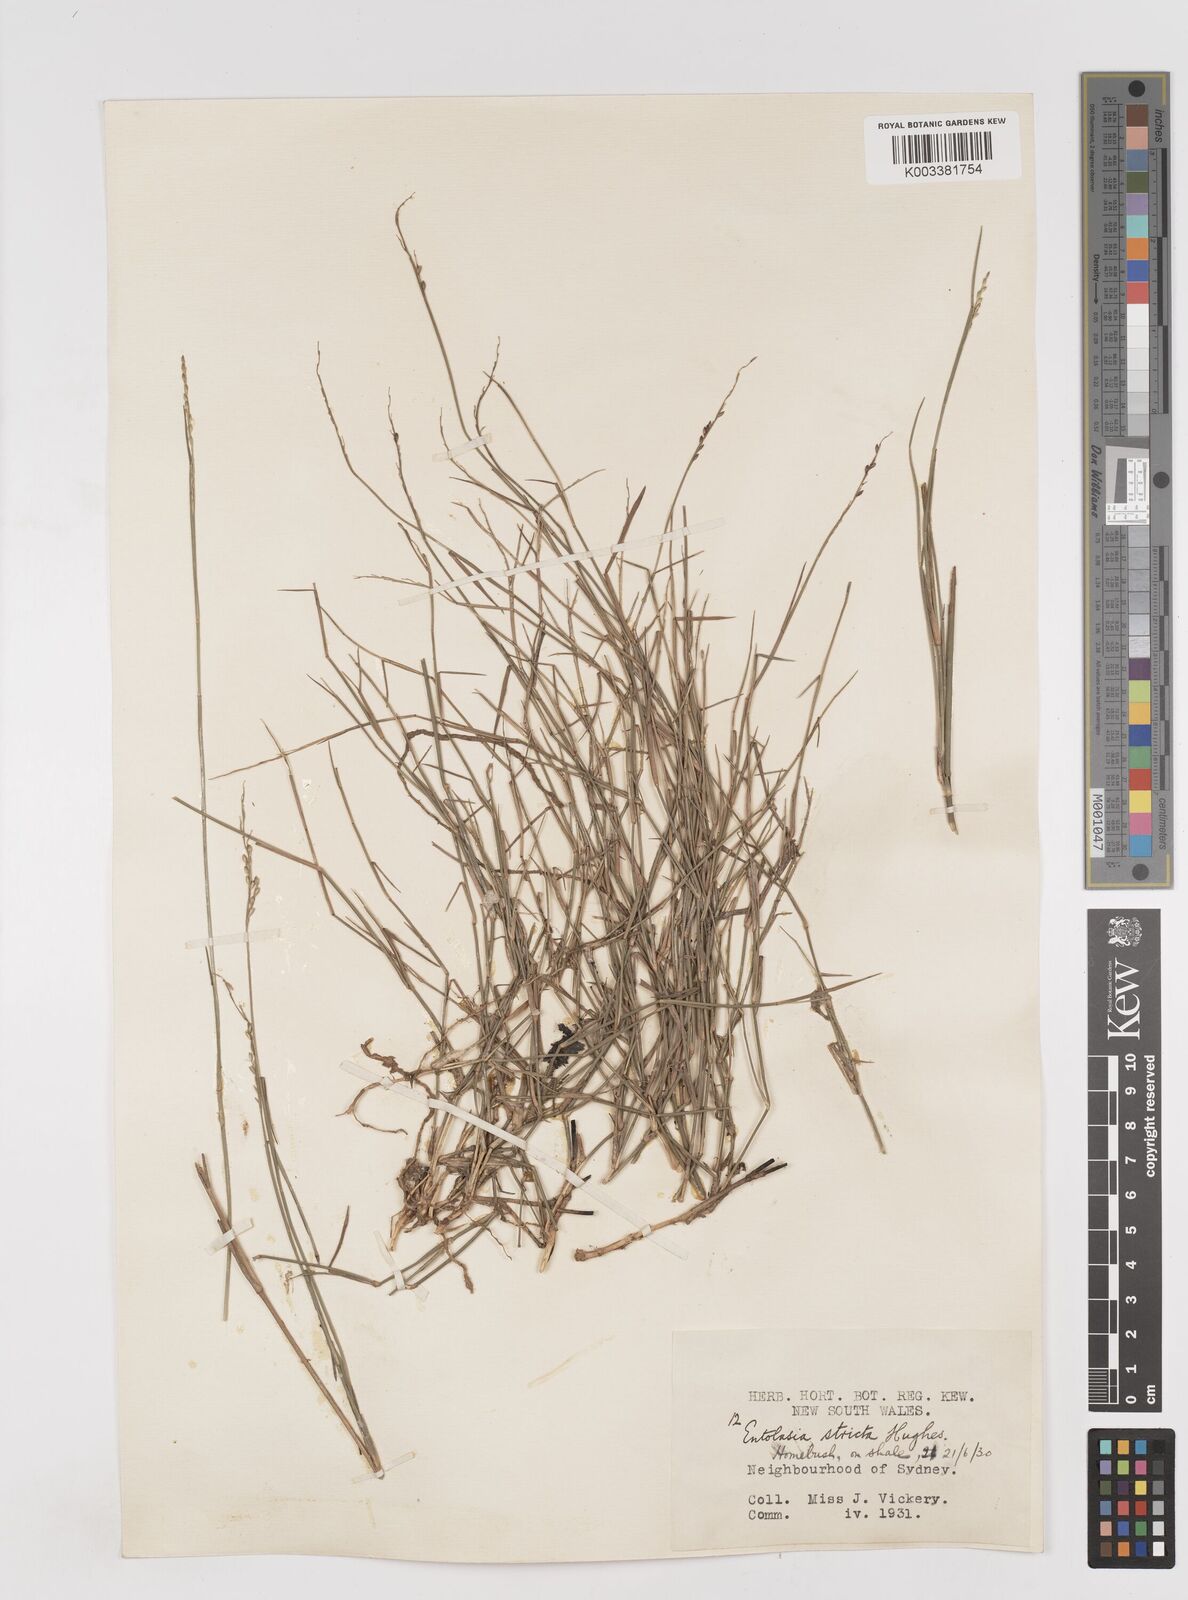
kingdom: Plantae
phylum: Tracheophyta
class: Liliopsida
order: Poales
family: Poaceae
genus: Entolasia
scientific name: Entolasia stricta
